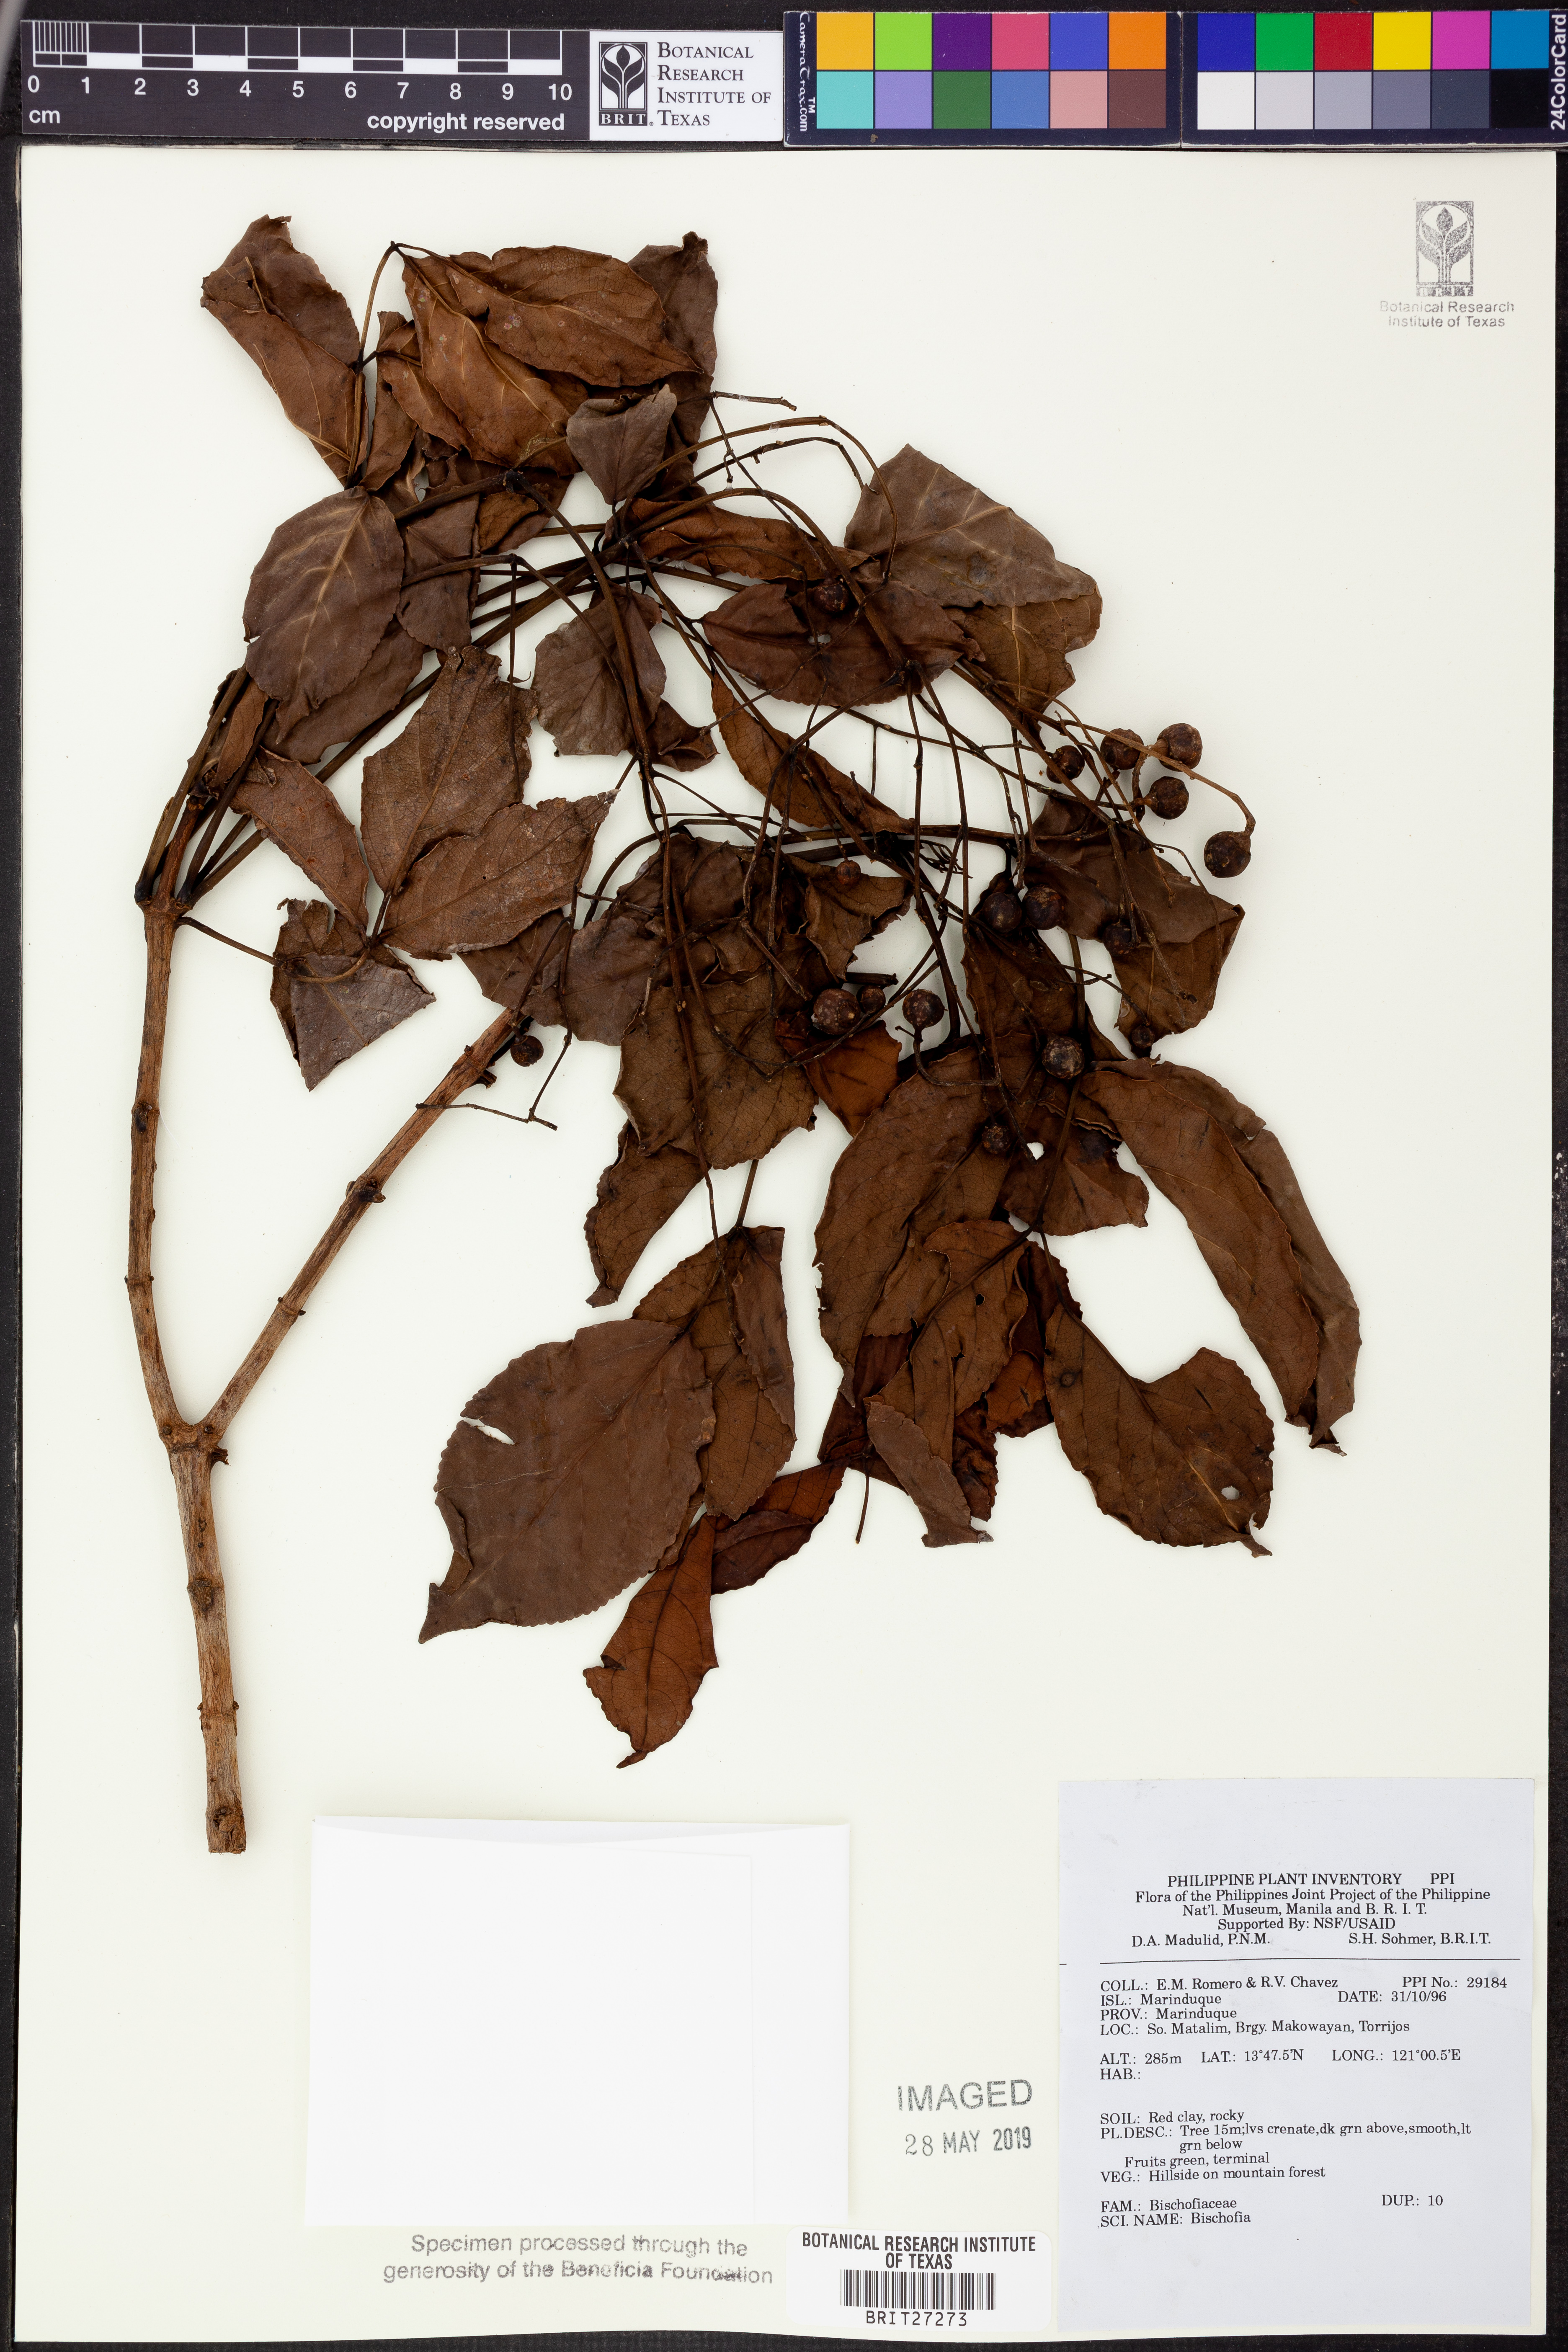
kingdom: Plantae
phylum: Tracheophyta
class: Magnoliopsida
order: Malpighiales
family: Phyllanthaceae
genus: Bischofia
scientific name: Bischofia
